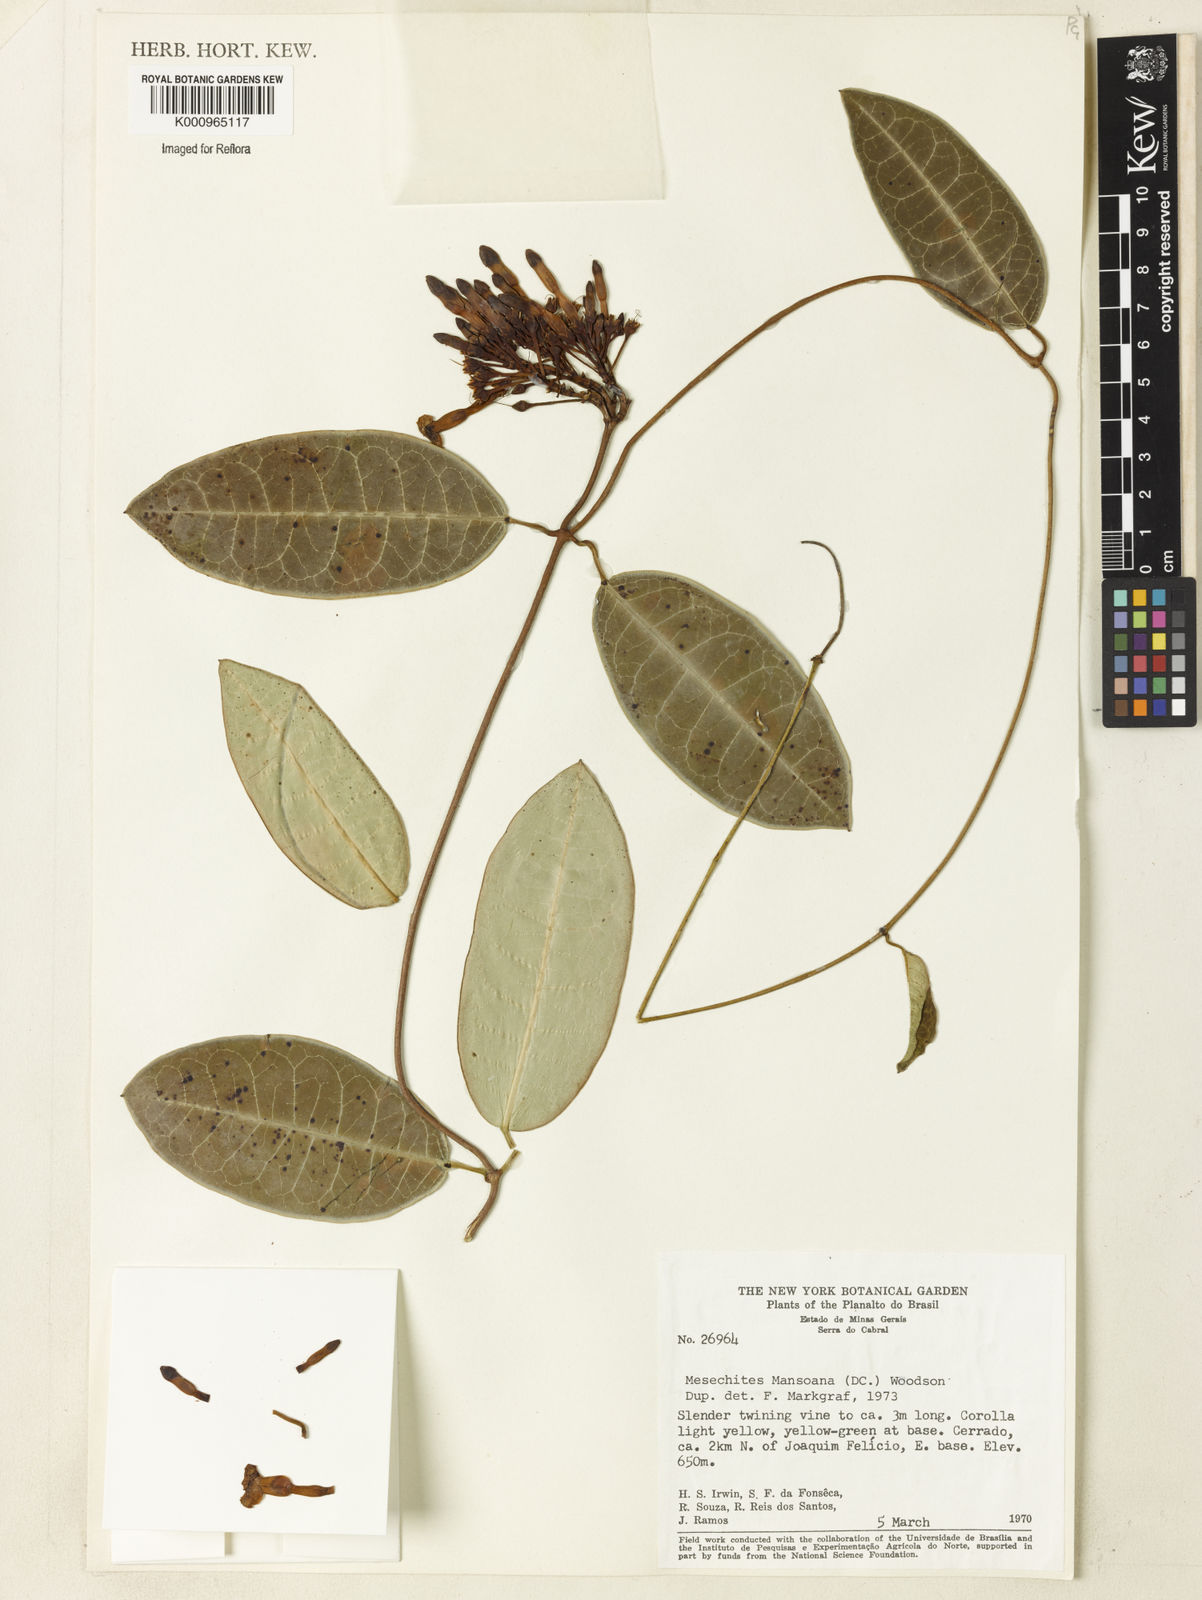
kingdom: Plantae
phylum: Tracheophyta
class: Magnoliopsida
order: Gentianales
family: Apocynaceae
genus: Mesechites
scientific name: Mesechites
